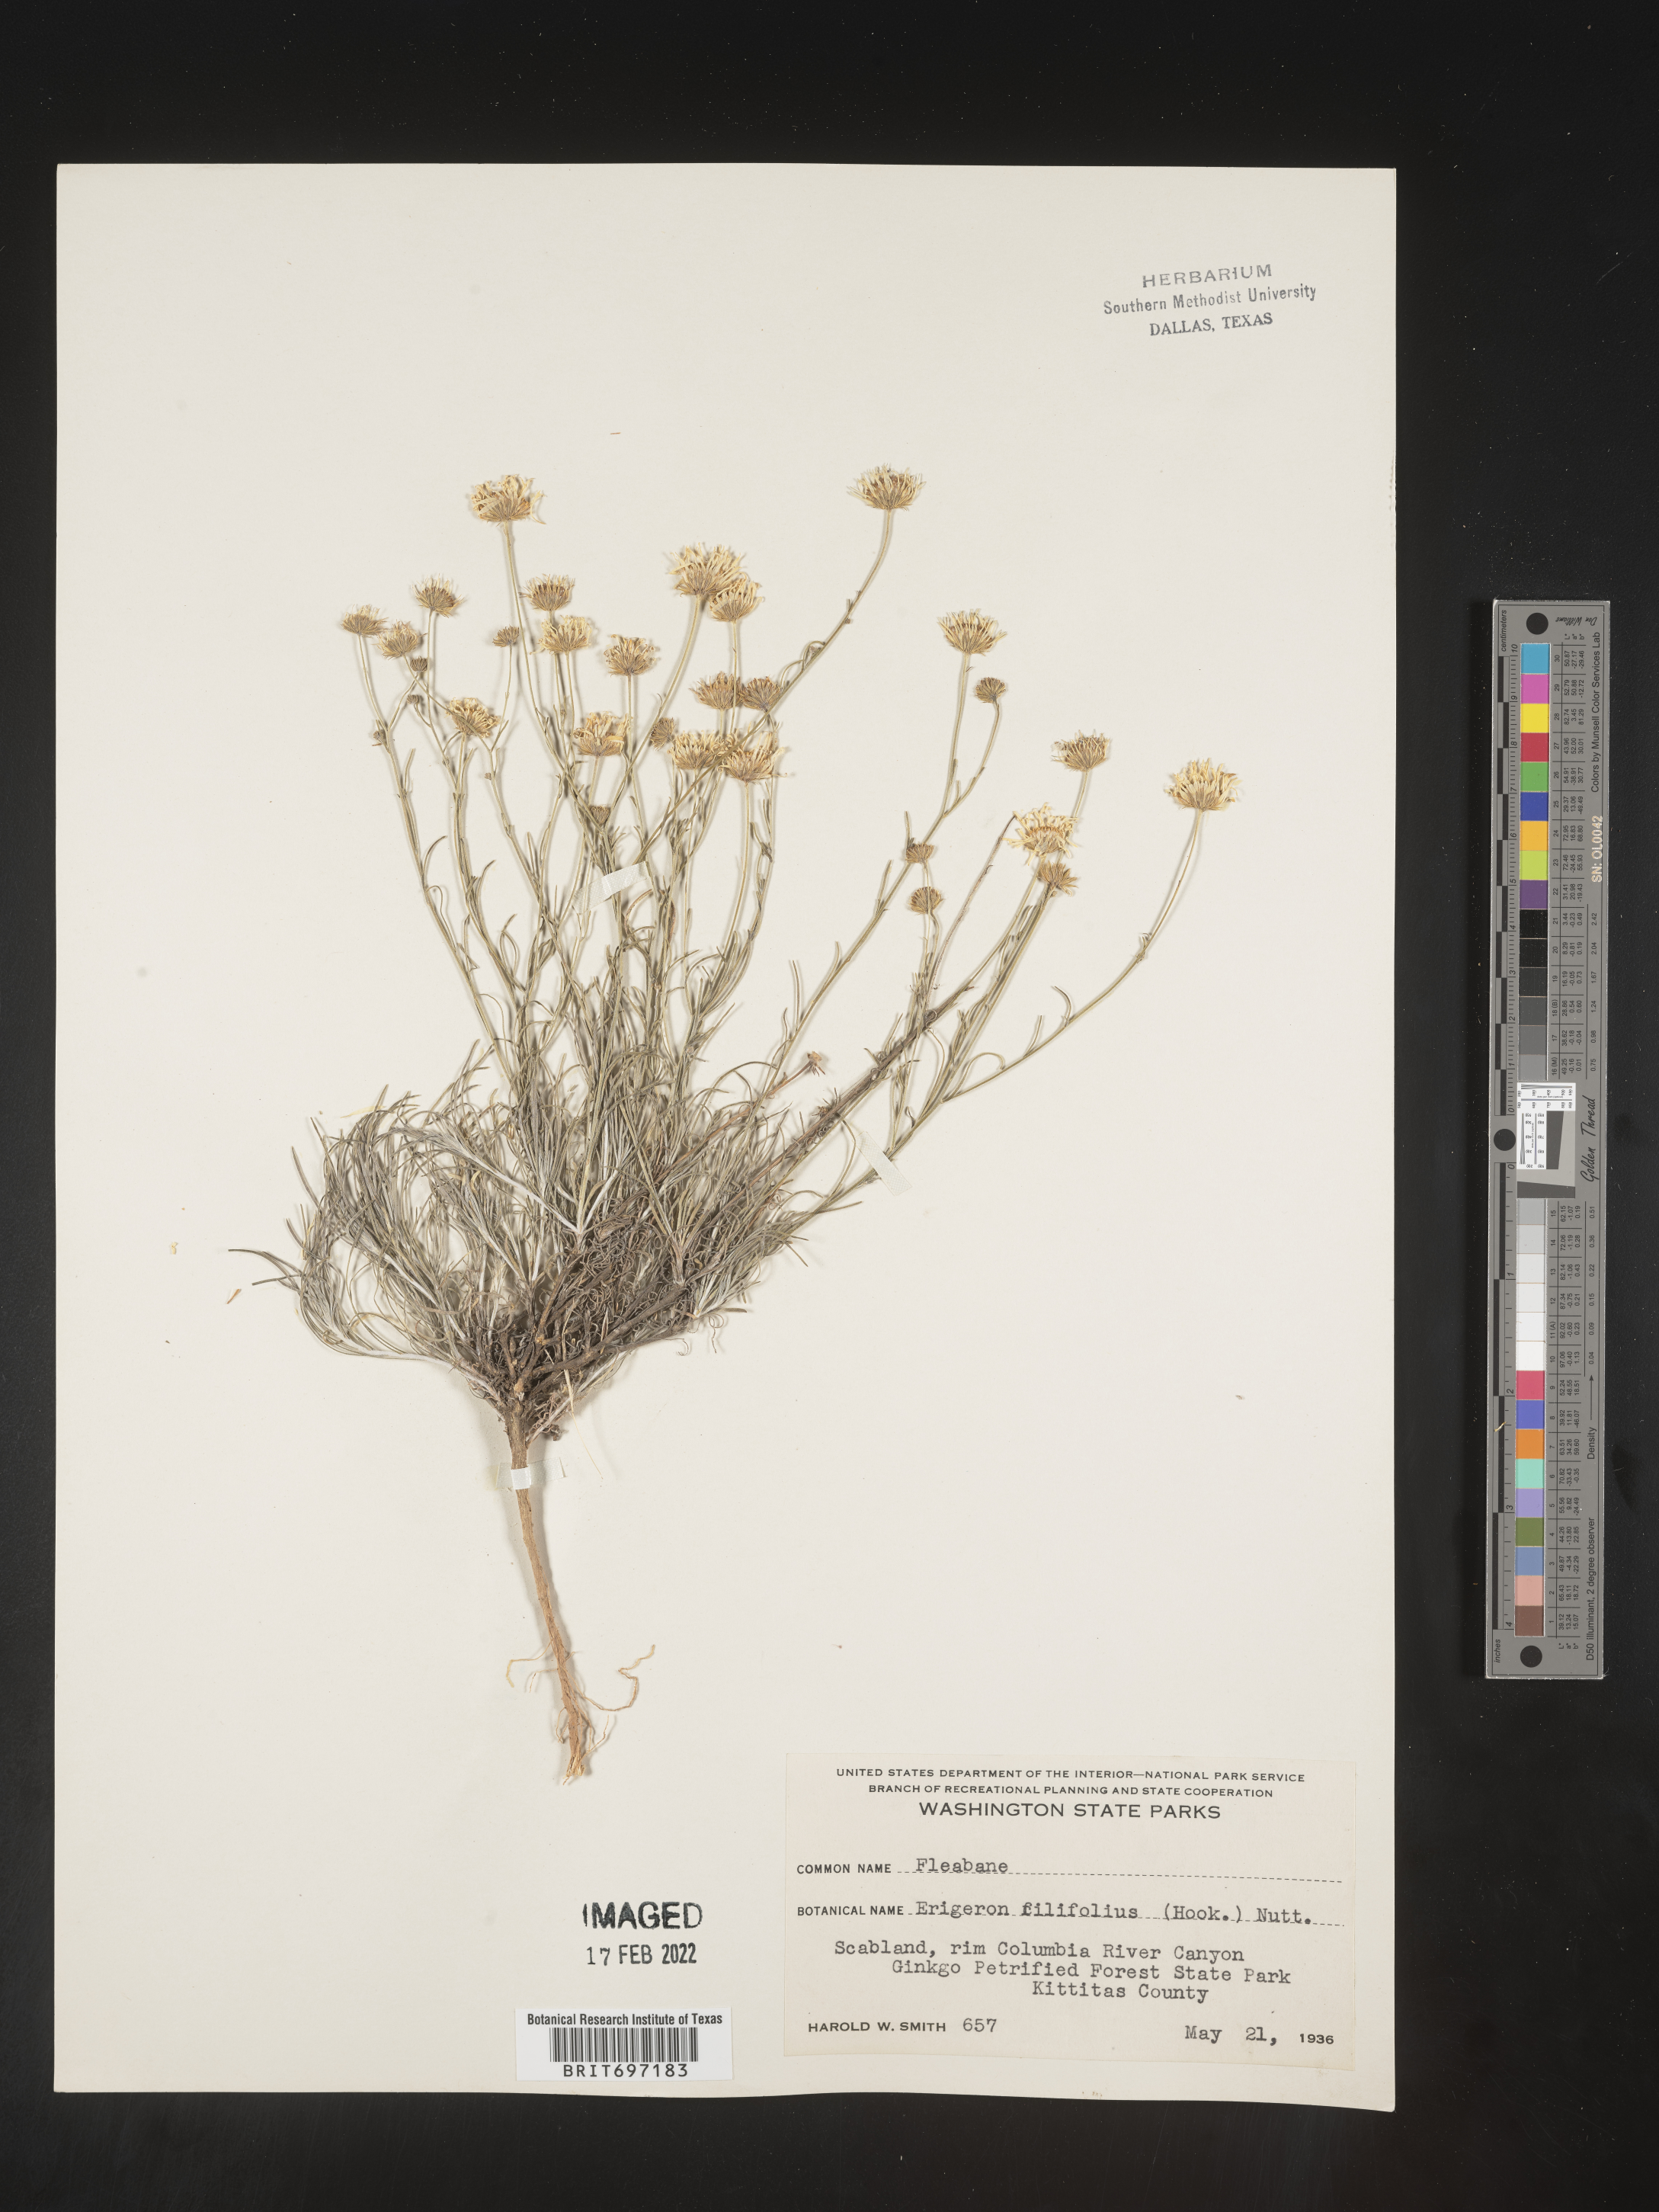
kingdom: Plantae
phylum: Tracheophyta
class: Magnoliopsida
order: Asterales
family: Asteraceae
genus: Erigeron
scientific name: Erigeron filifolius
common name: Threadleaf fleabane
